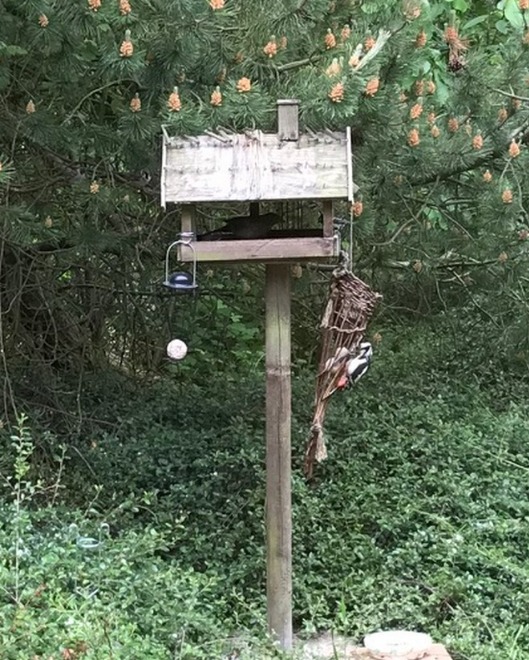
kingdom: Animalia
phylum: Chordata
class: Aves
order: Piciformes
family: Picidae
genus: Dendrocopos
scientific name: Dendrocopos major
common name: Stor flagspætte
